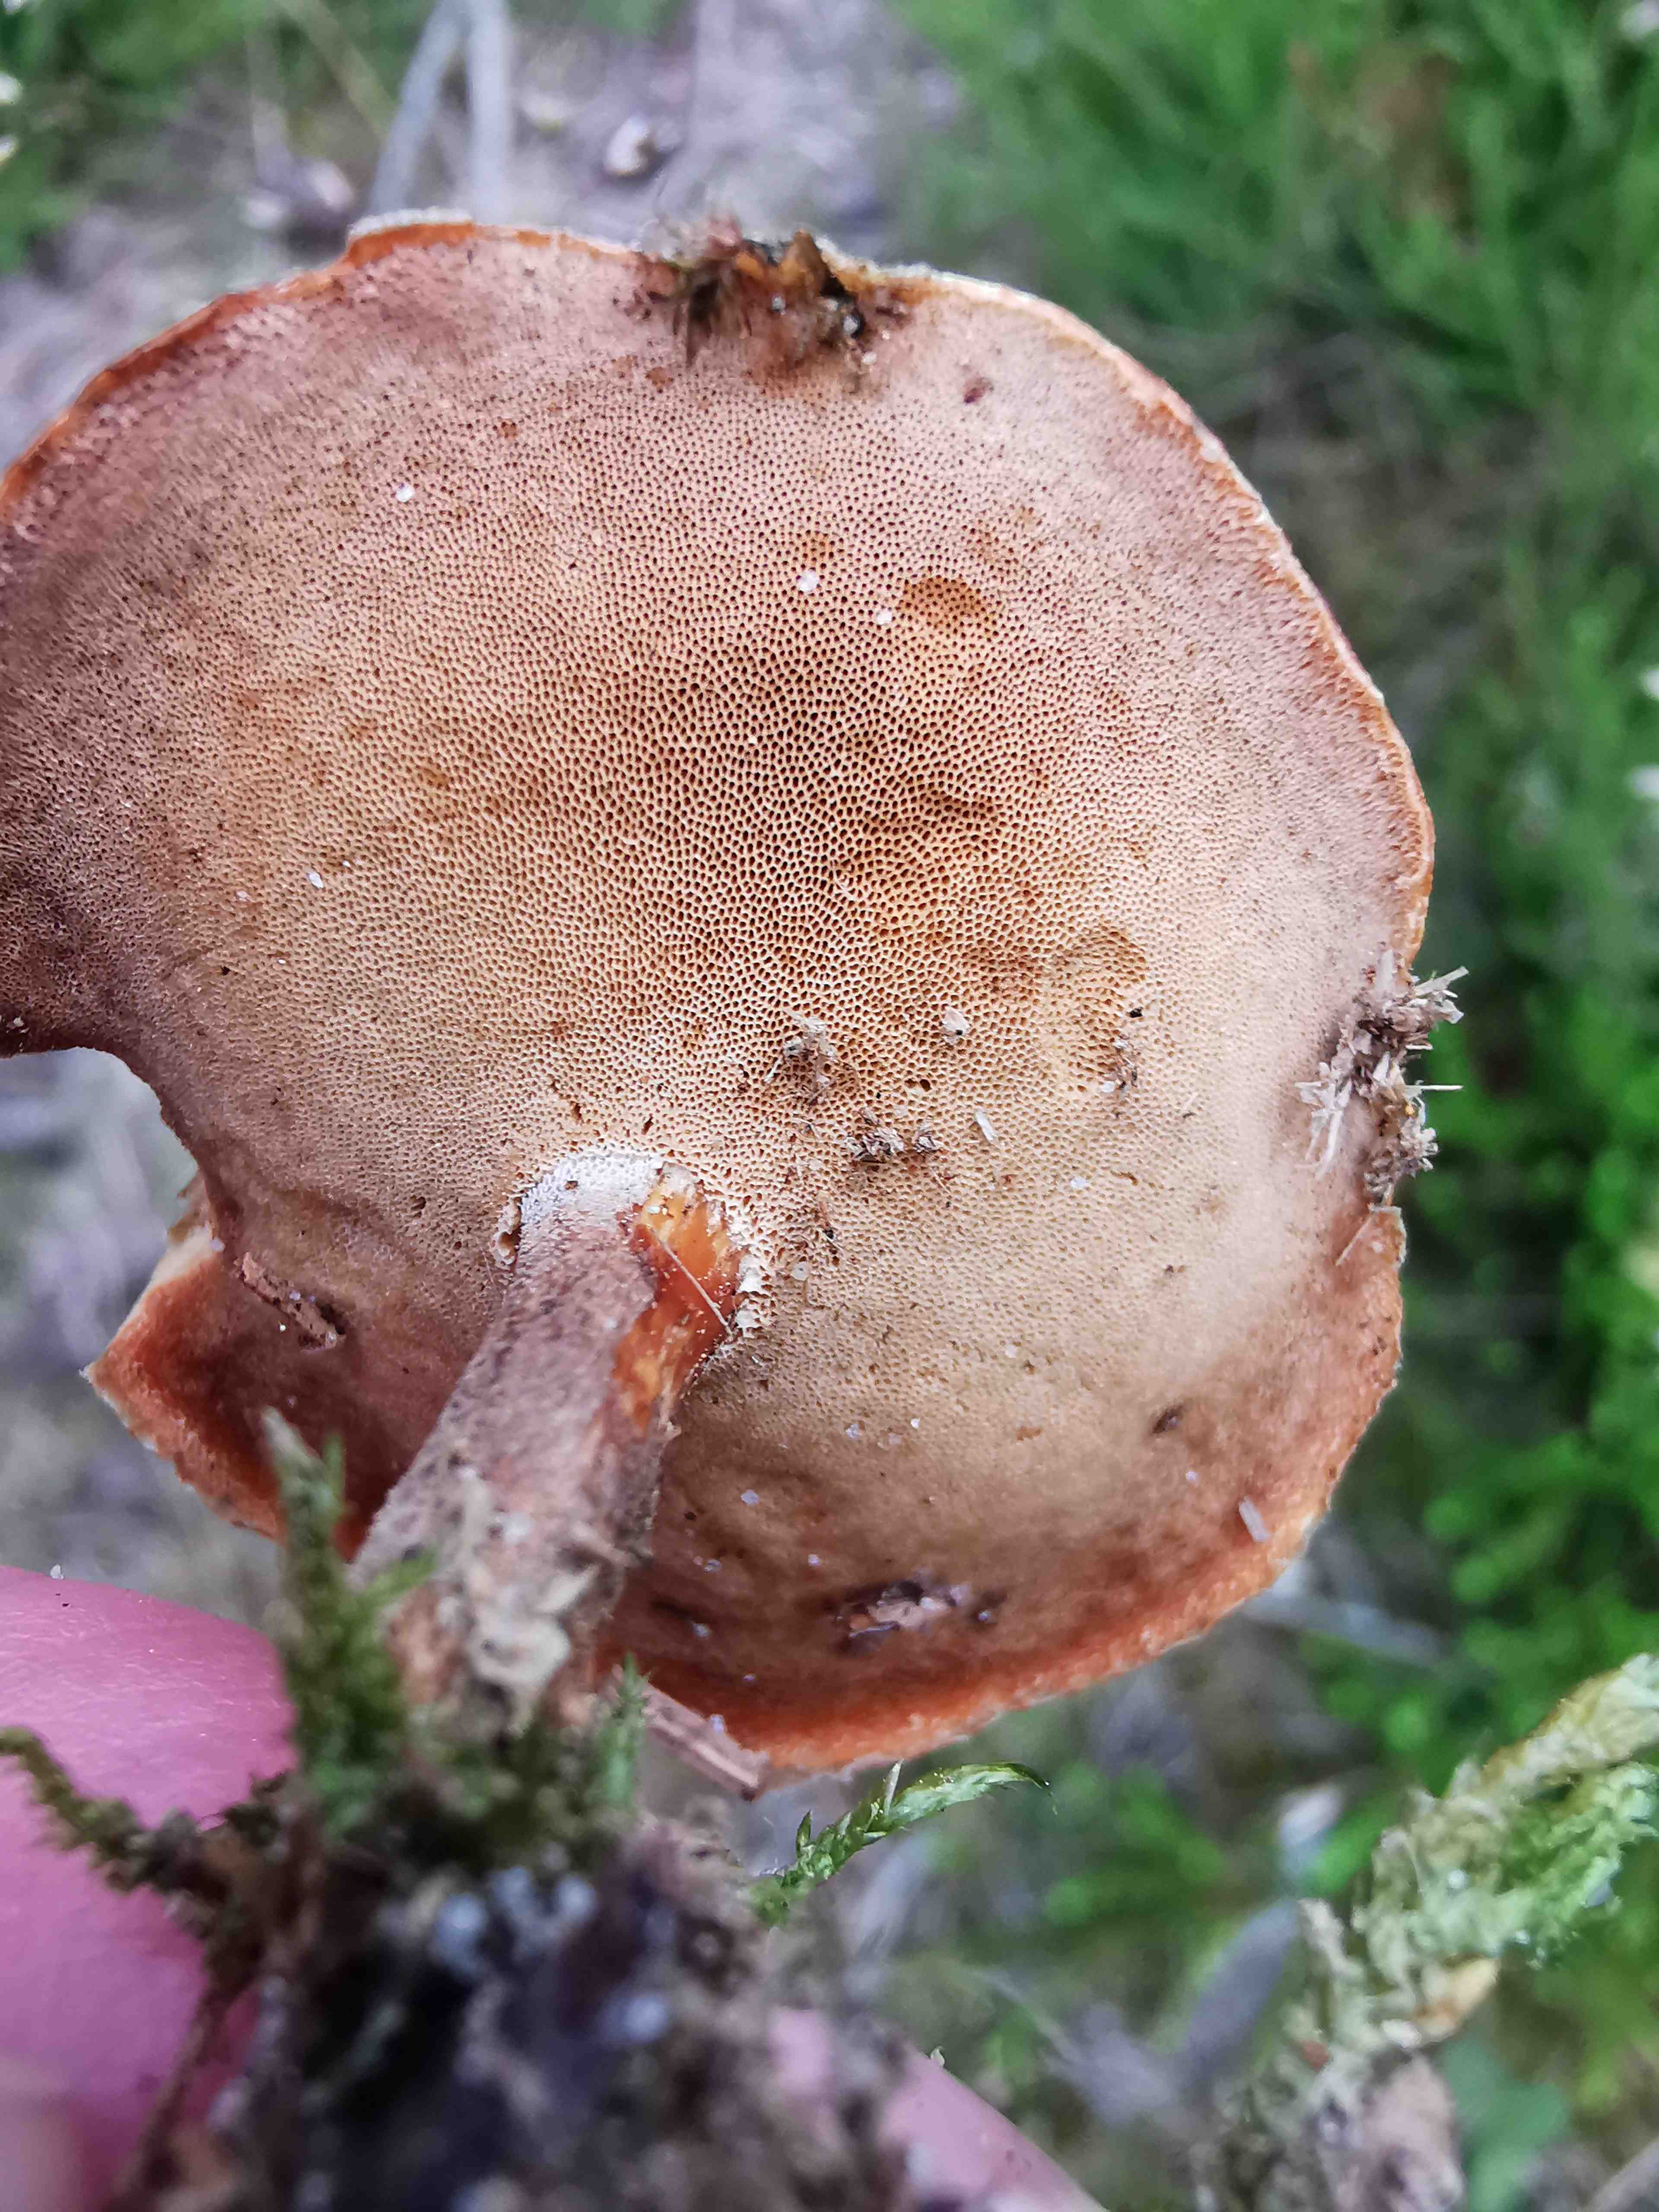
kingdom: Fungi
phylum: Basidiomycota
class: Agaricomycetes
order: Polyporales
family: Polyporaceae
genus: Lentinus
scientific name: Lentinus substrictus
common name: forårs-stilkporesvamp
